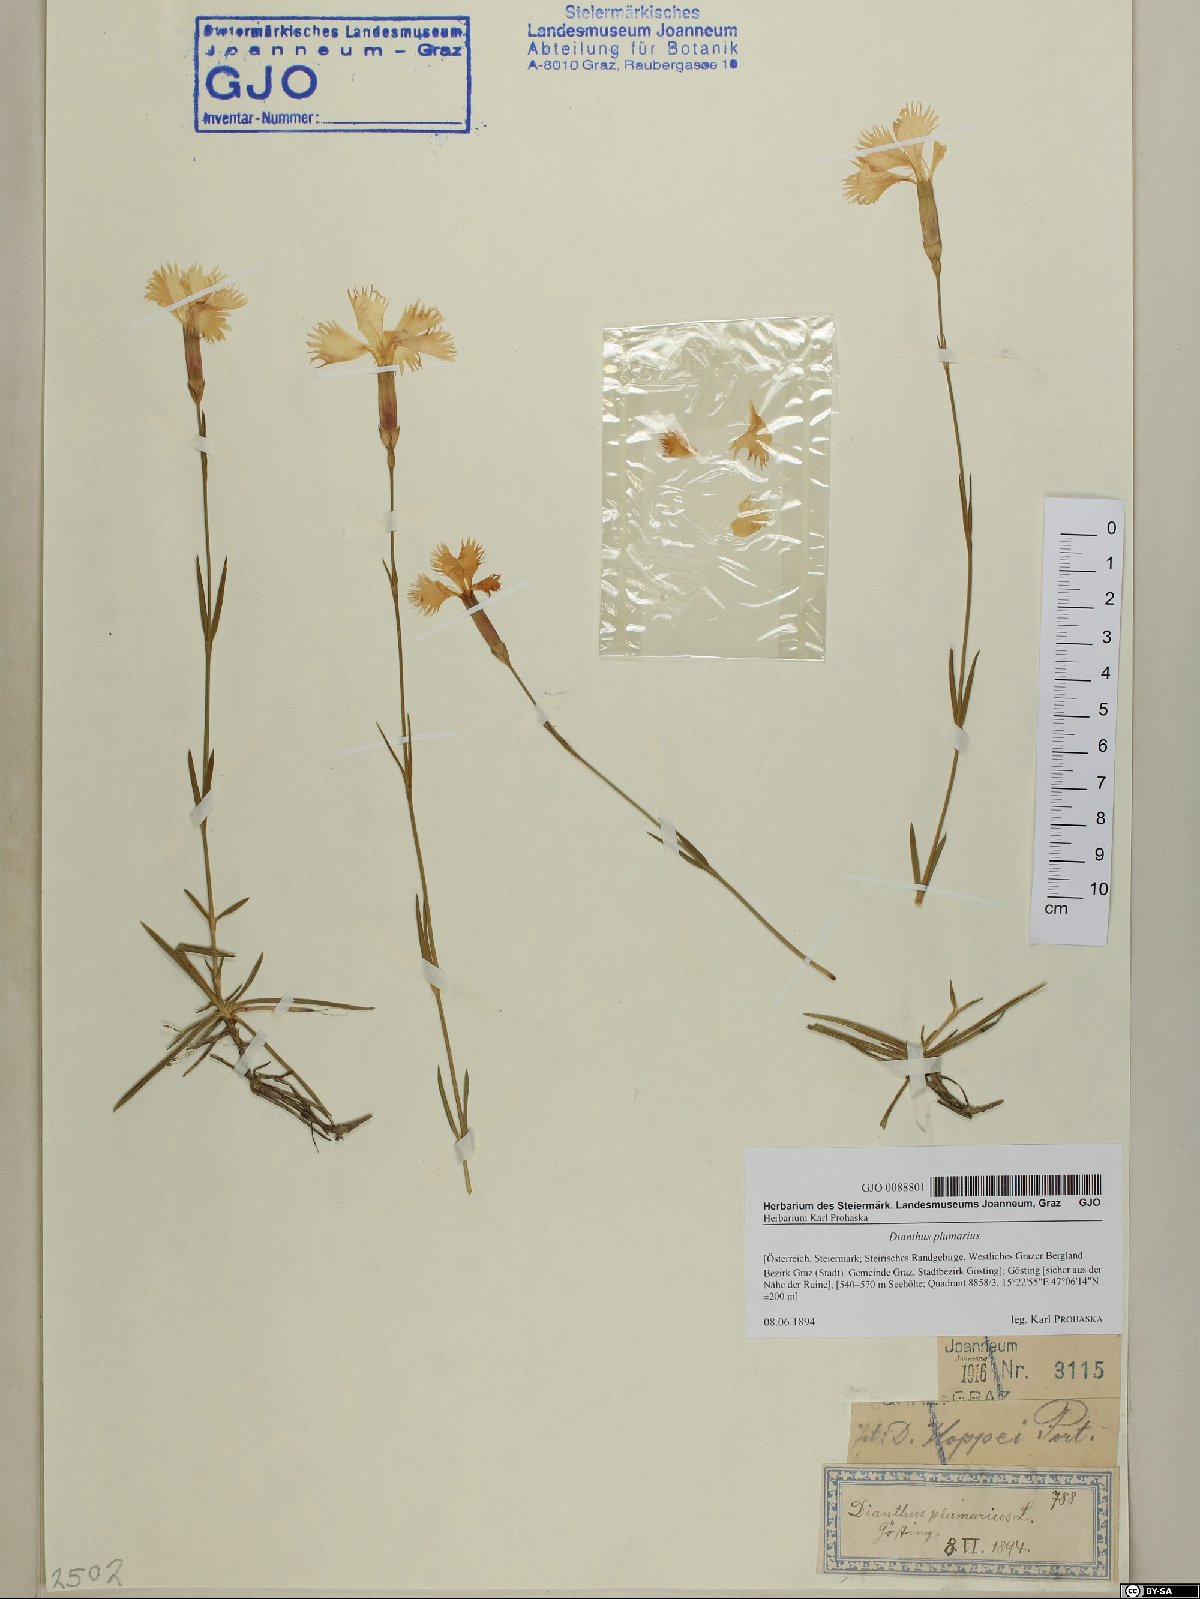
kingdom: Plantae
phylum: Tracheophyta
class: Magnoliopsida
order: Caryophyllales
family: Caryophyllaceae
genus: Dianthus
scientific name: Dianthus plumarius
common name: Pink
